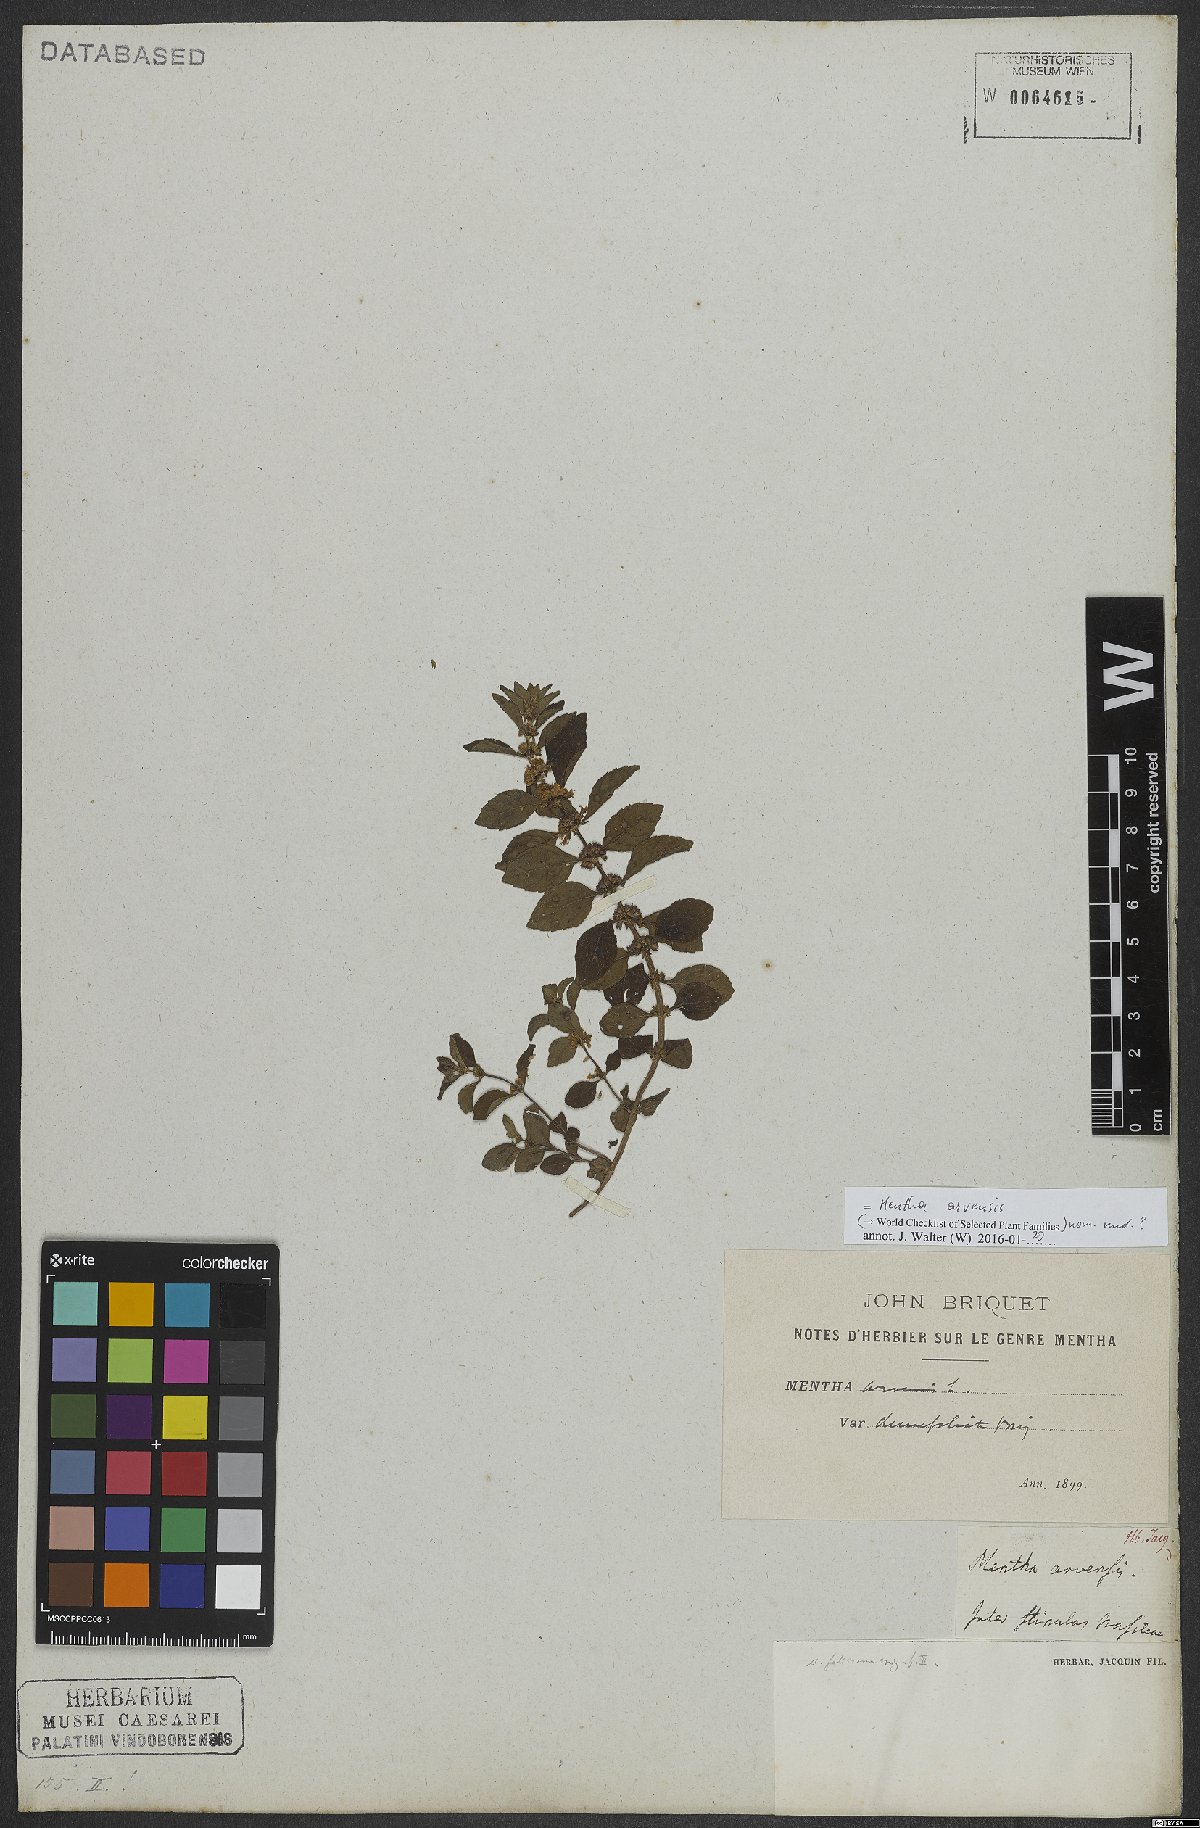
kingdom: Plantae
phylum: Tracheophyta
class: Magnoliopsida
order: Lamiales
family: Lamiaceae
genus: Mentha
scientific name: Mentha arvensis
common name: Corn mint
